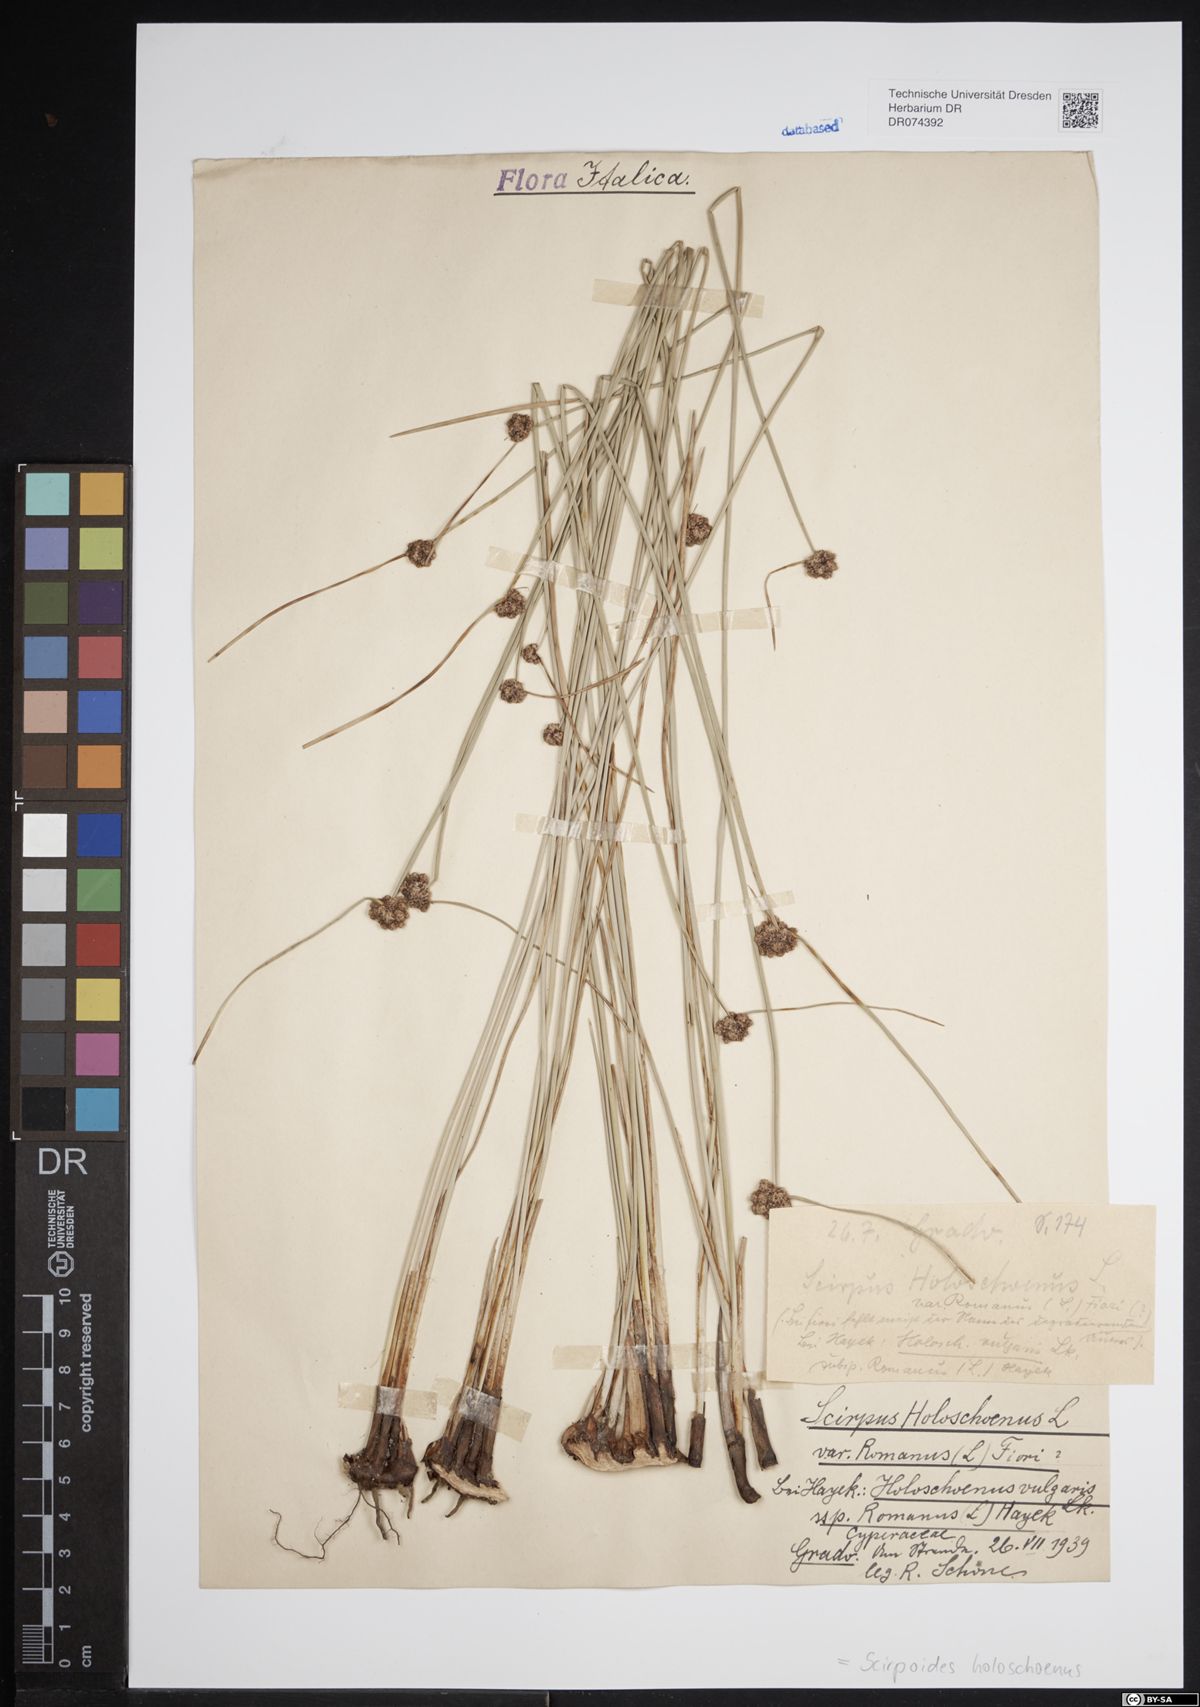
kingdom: Plantae
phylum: Tracheophyta
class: Liliopsida
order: Poales
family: Cyperaceae
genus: Scirpoides
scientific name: Scirpoides holoschoenus
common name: Round-headed club-rush
